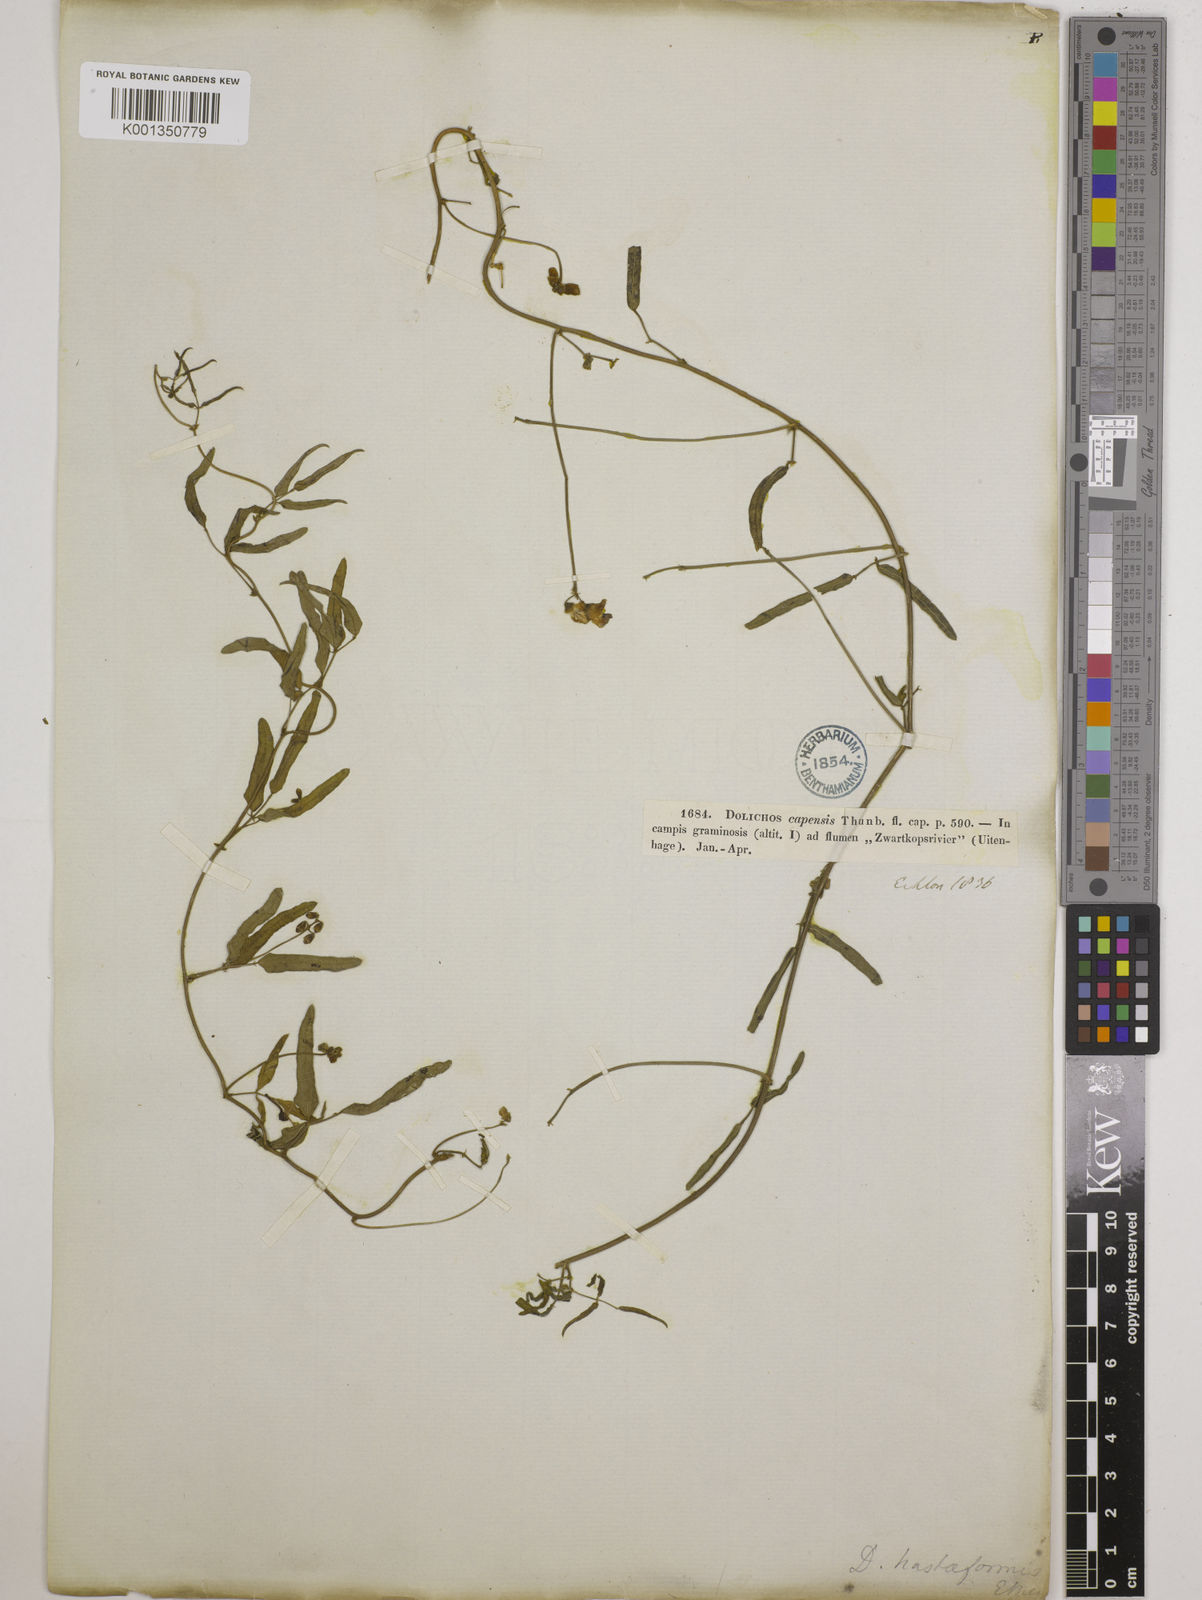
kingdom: Plantae
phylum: Tracheophyta
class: Magnoliopsida
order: Fabales
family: Fabaceae
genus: Dolichos
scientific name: Dolichos
